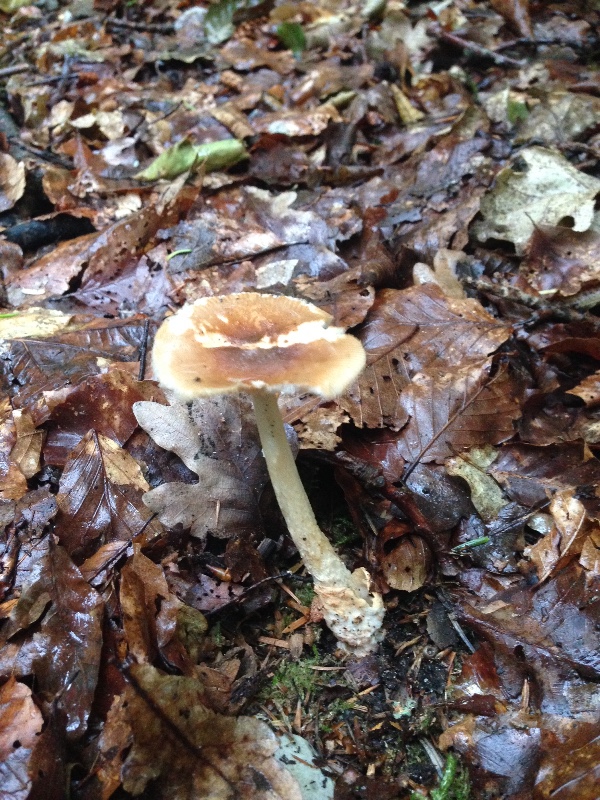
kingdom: Fungi
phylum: Basidiomycota
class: Agaricomycetes
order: Agaricales
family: Amanitaceae
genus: Amanita
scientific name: Amanita fulva
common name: brun kam-fluesvamp
